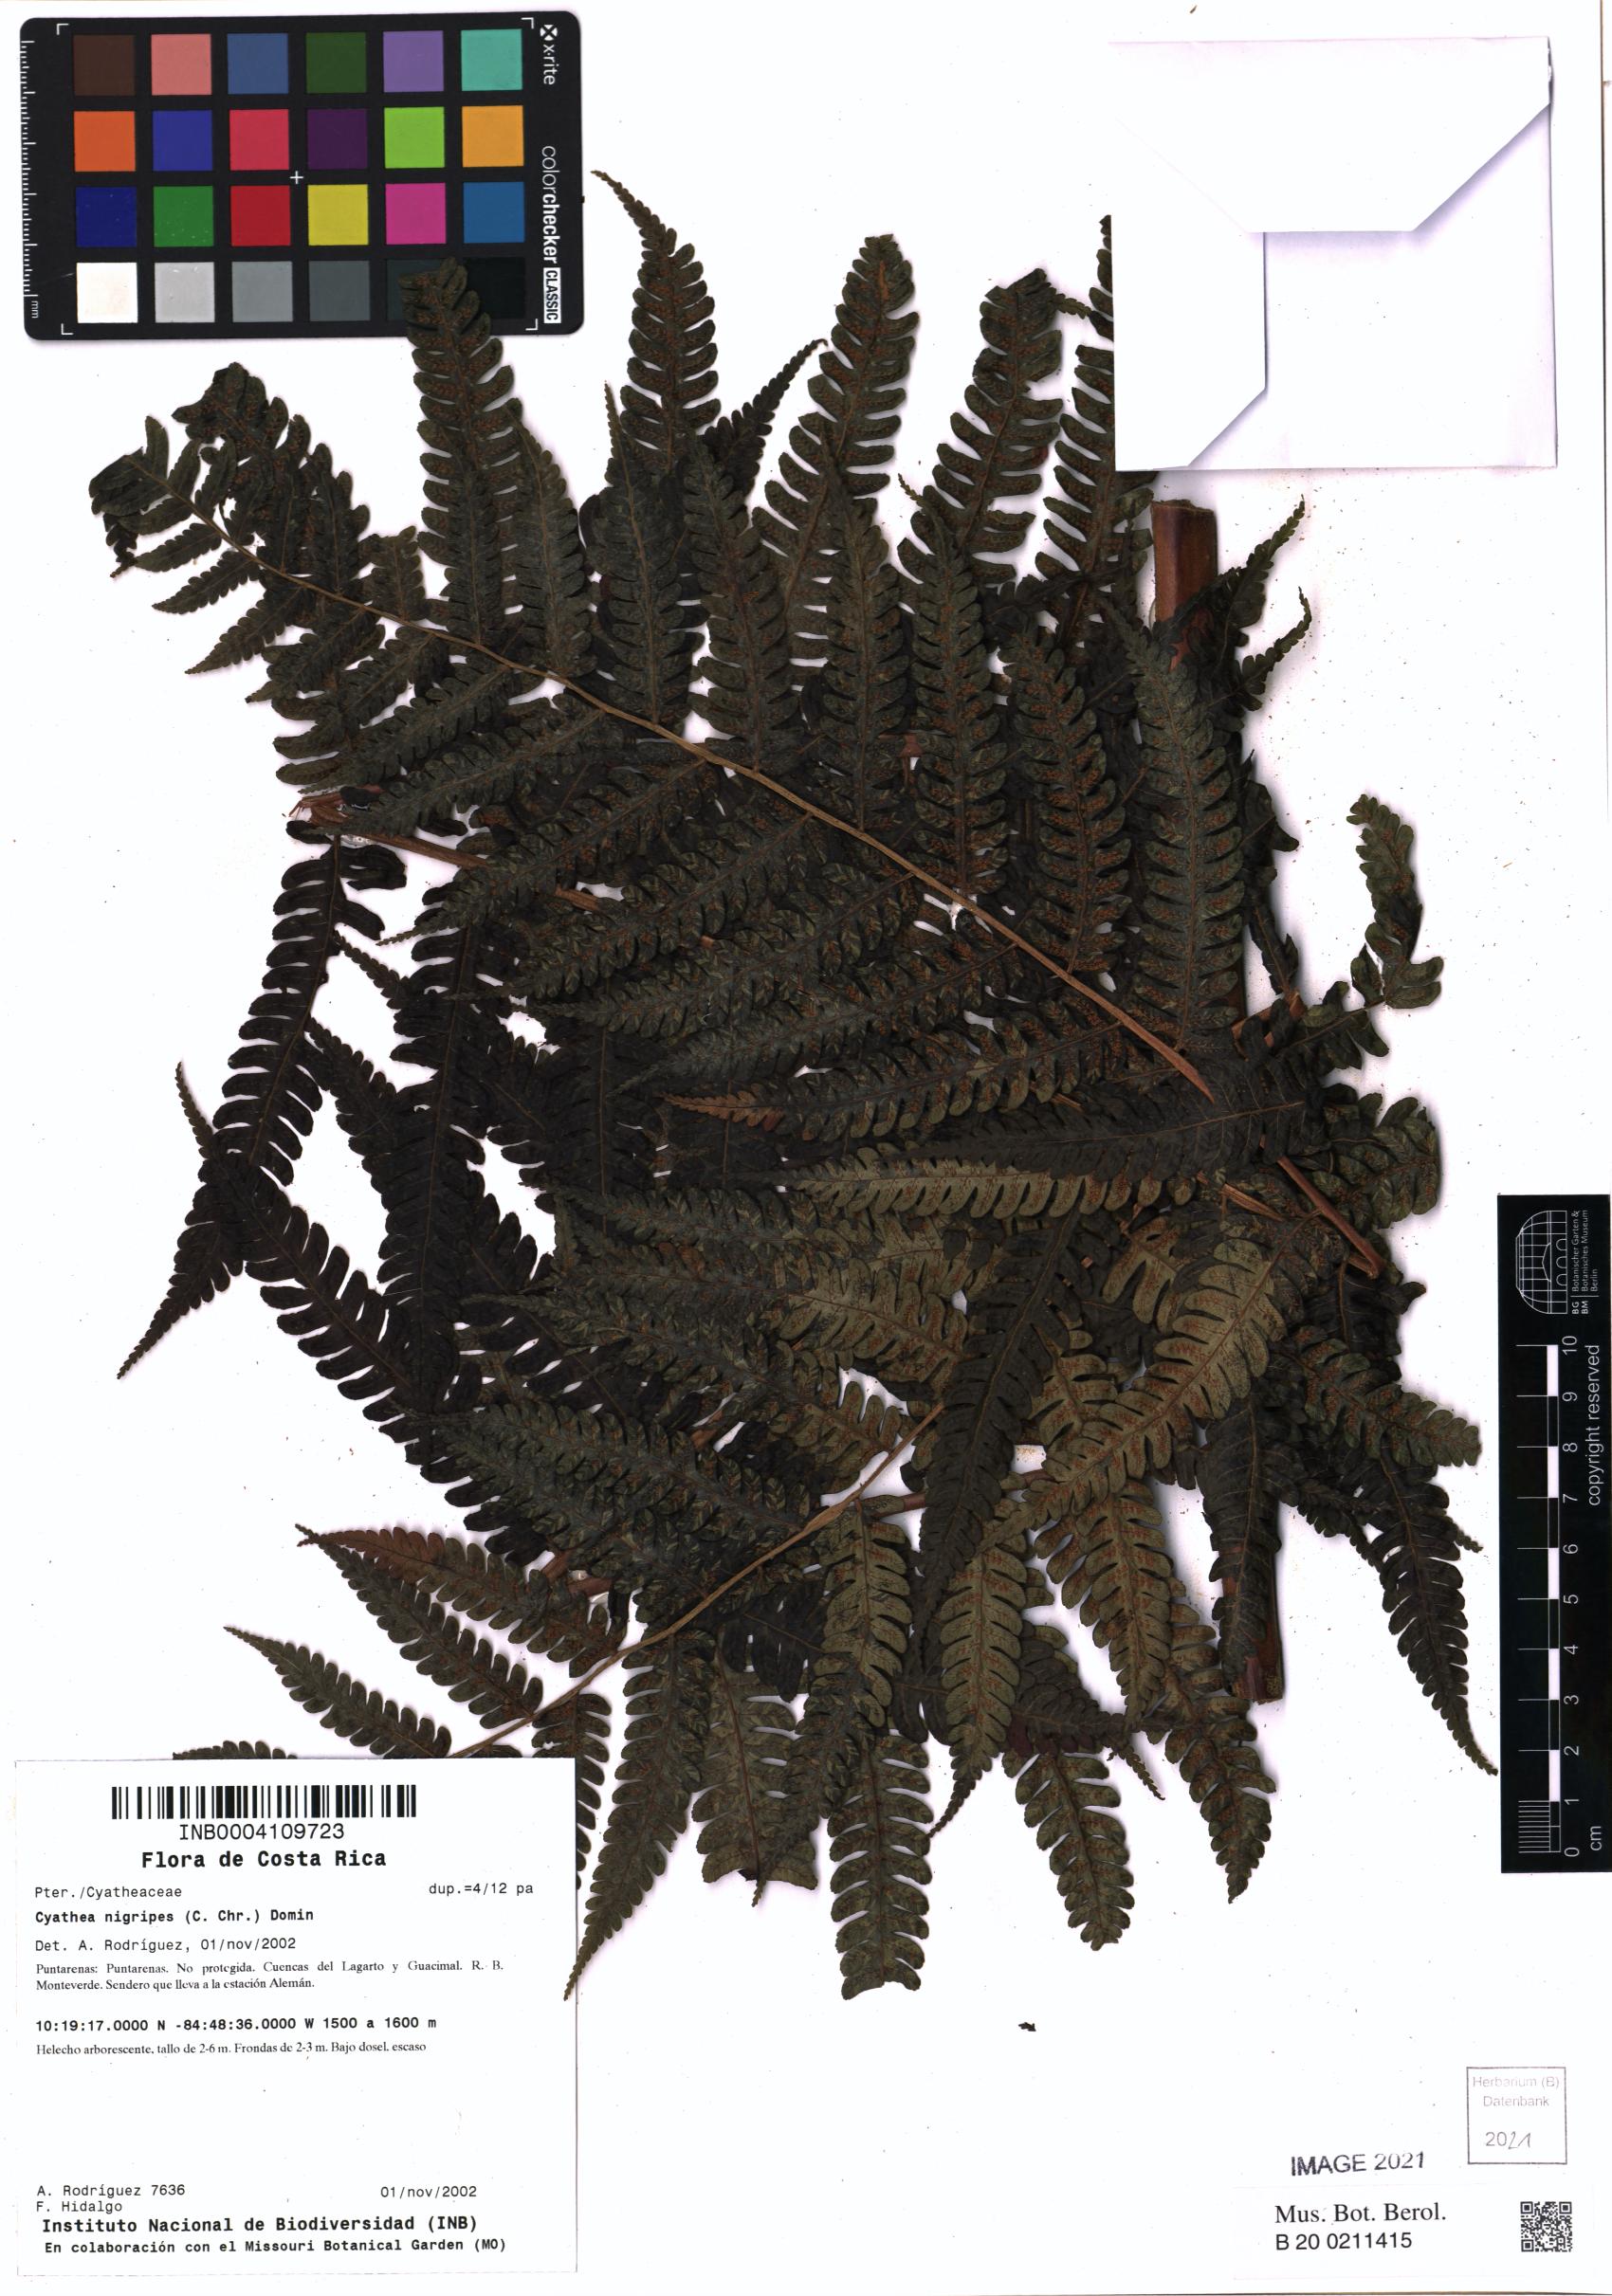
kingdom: Plantae
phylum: Tracheophyta
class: Polypodiopsida
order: Cyatheales
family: Cyatheaceae
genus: Cyathea
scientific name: Cyathea nigripes
